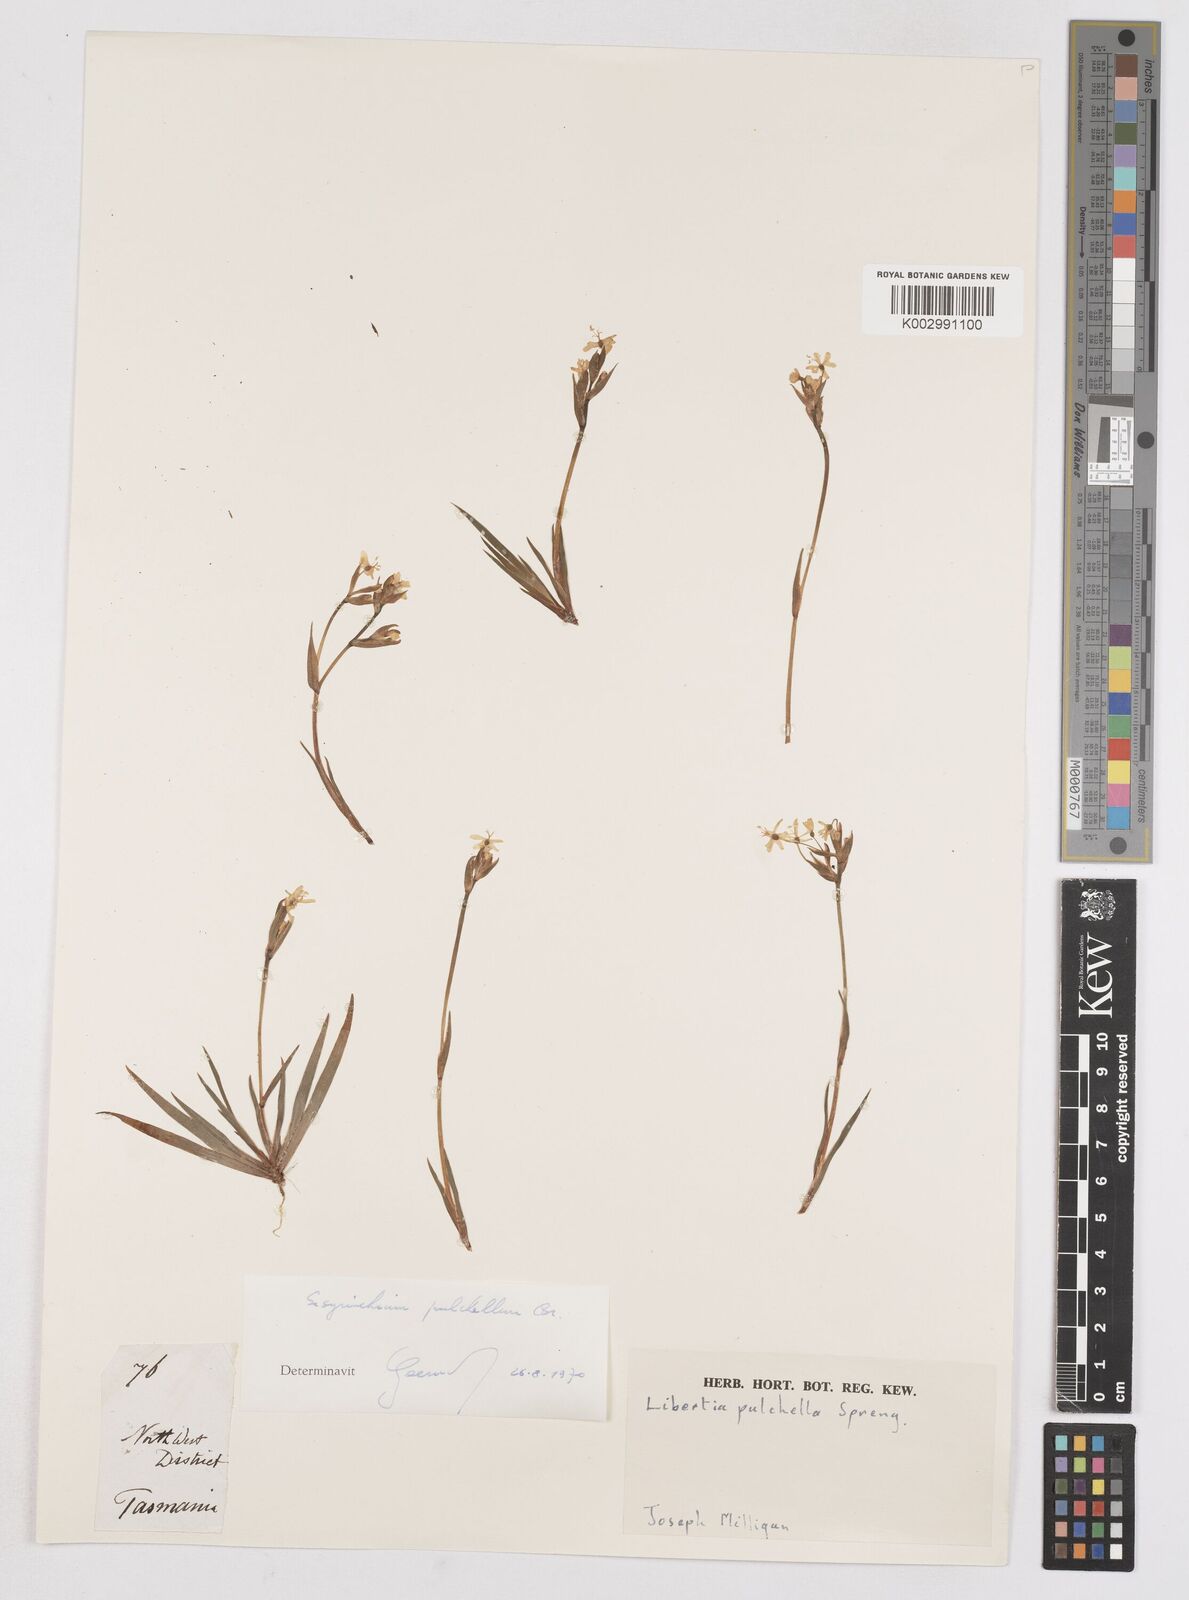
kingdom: Plantae
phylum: Tracheophyta
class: Liliopsida
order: Asparagales
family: Iridaceae
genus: Libertia
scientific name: Libertia pulchella
